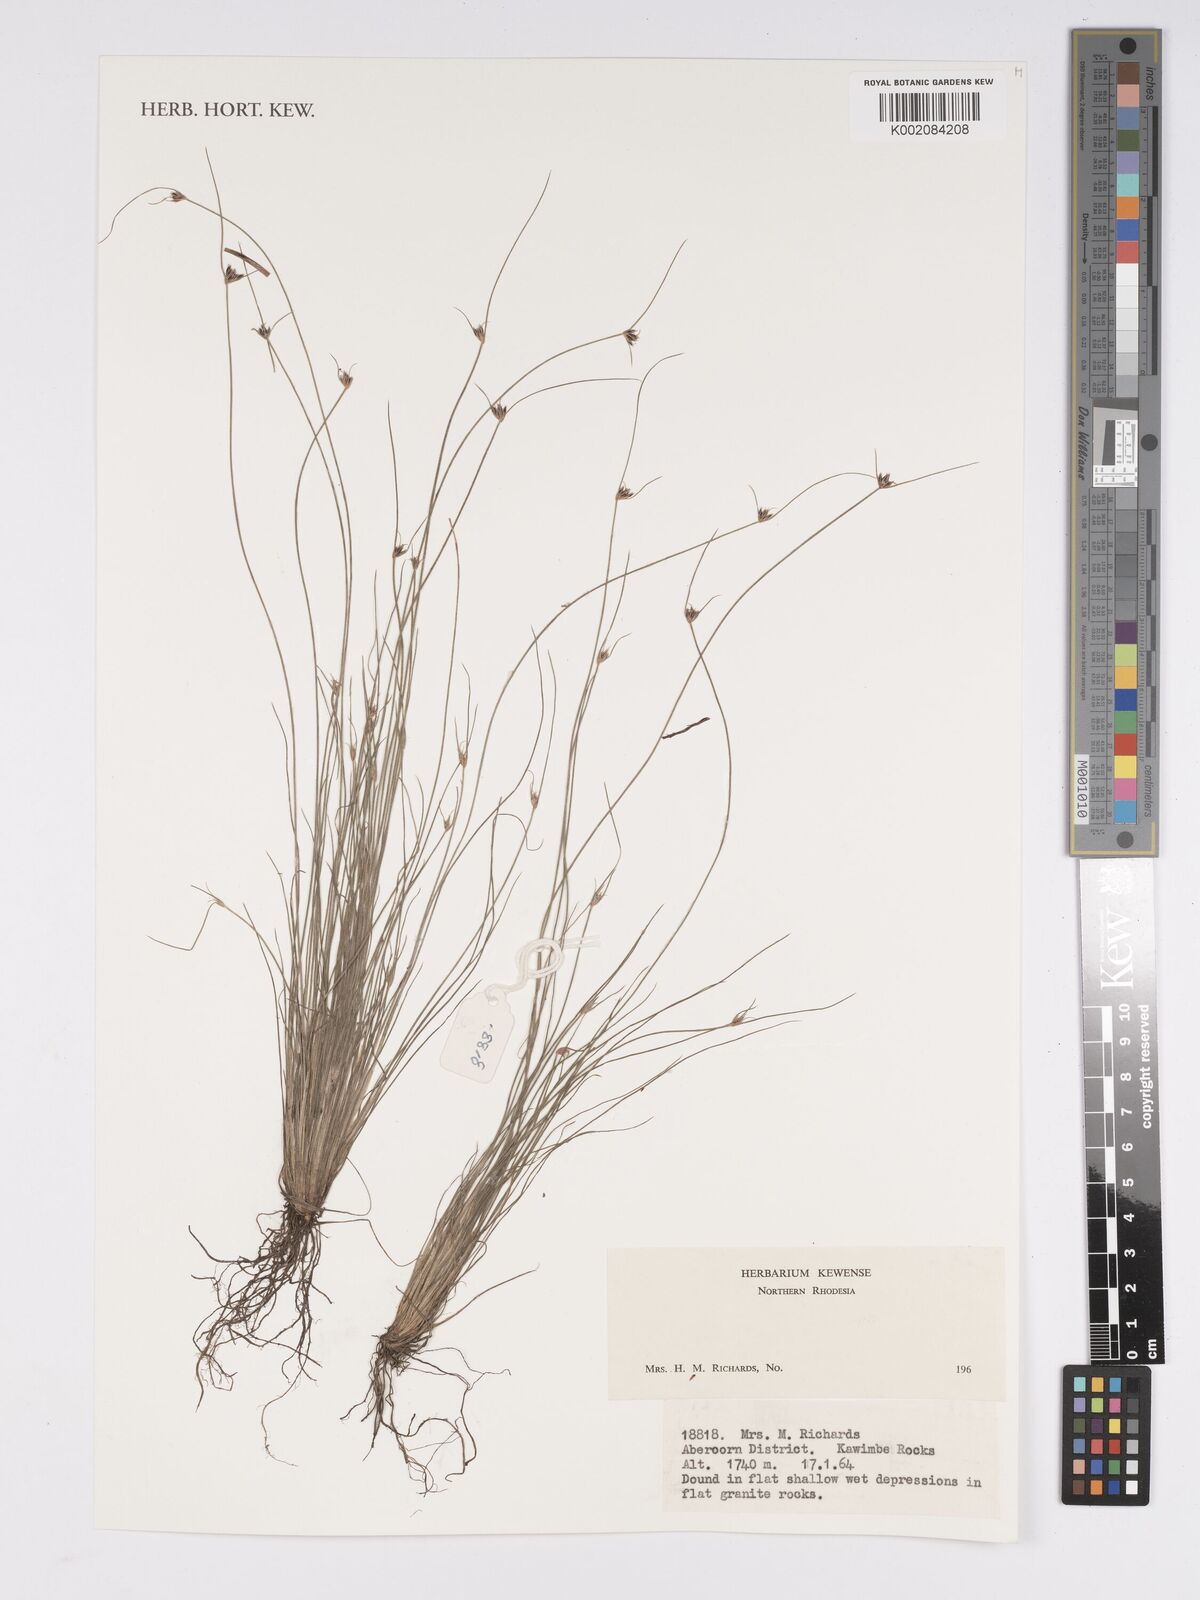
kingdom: Plantae
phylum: Tracheophyta
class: Liliopsida
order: Poales
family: Cyperaceae
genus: Bulbostylis
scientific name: Bulbostylis
